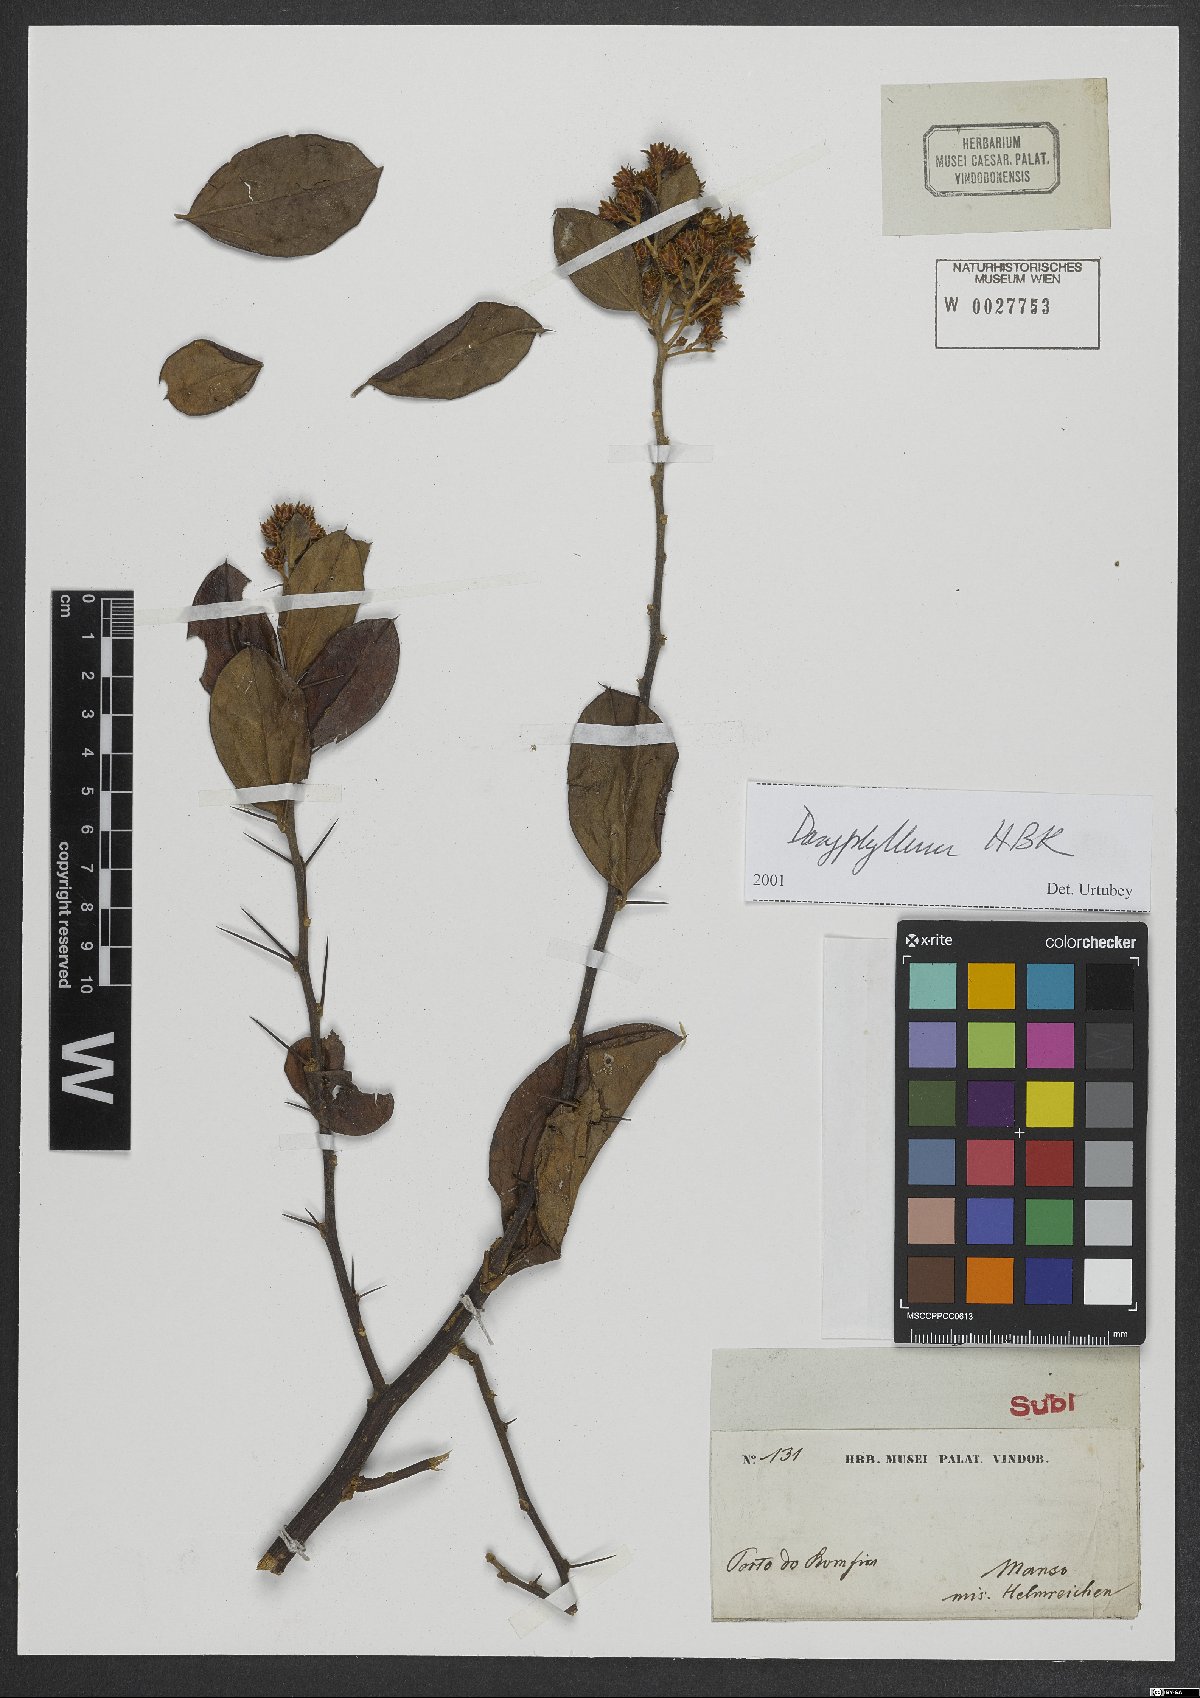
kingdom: Plantae
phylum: Tracheophyta
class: Magnoliopsida
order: Asterales
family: Asteraceae
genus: Dasyphyllum
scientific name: Dasyphyllum
